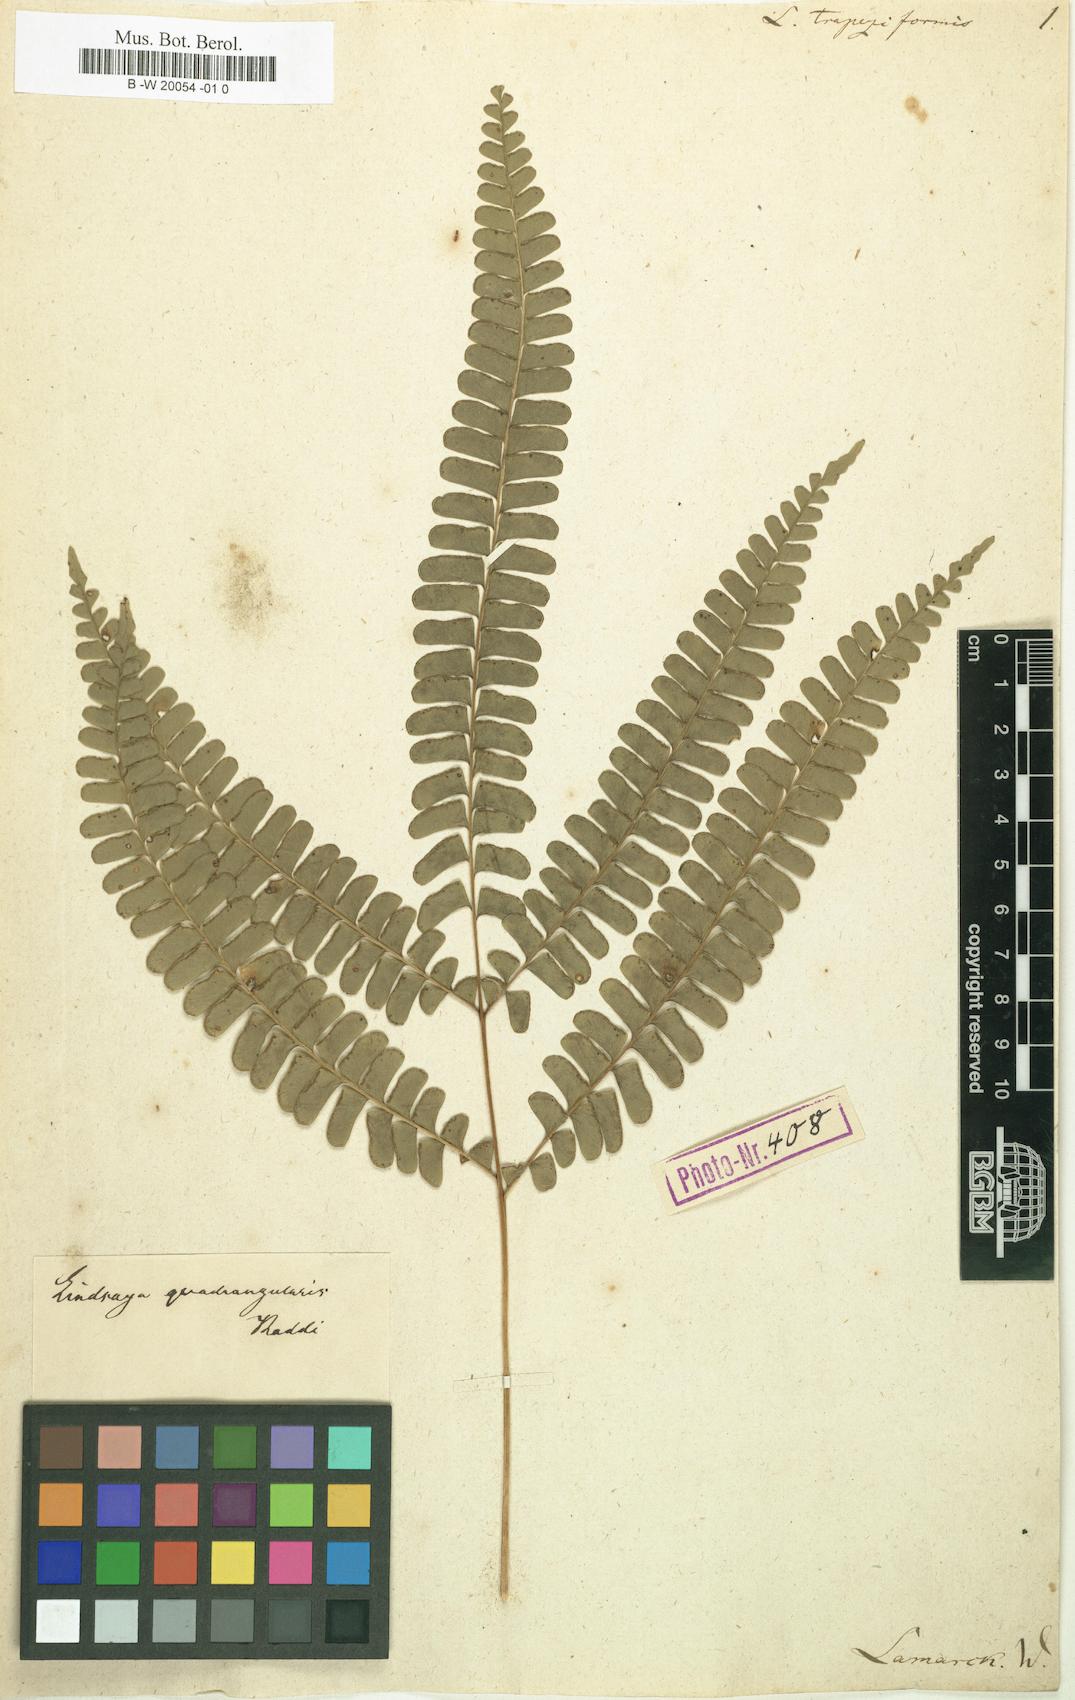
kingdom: Plantae
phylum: Tracheophyta
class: Polypodiopsida
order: Polypodiales
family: Lindsaeaceae
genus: Lindsaea
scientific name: Lindsaea
